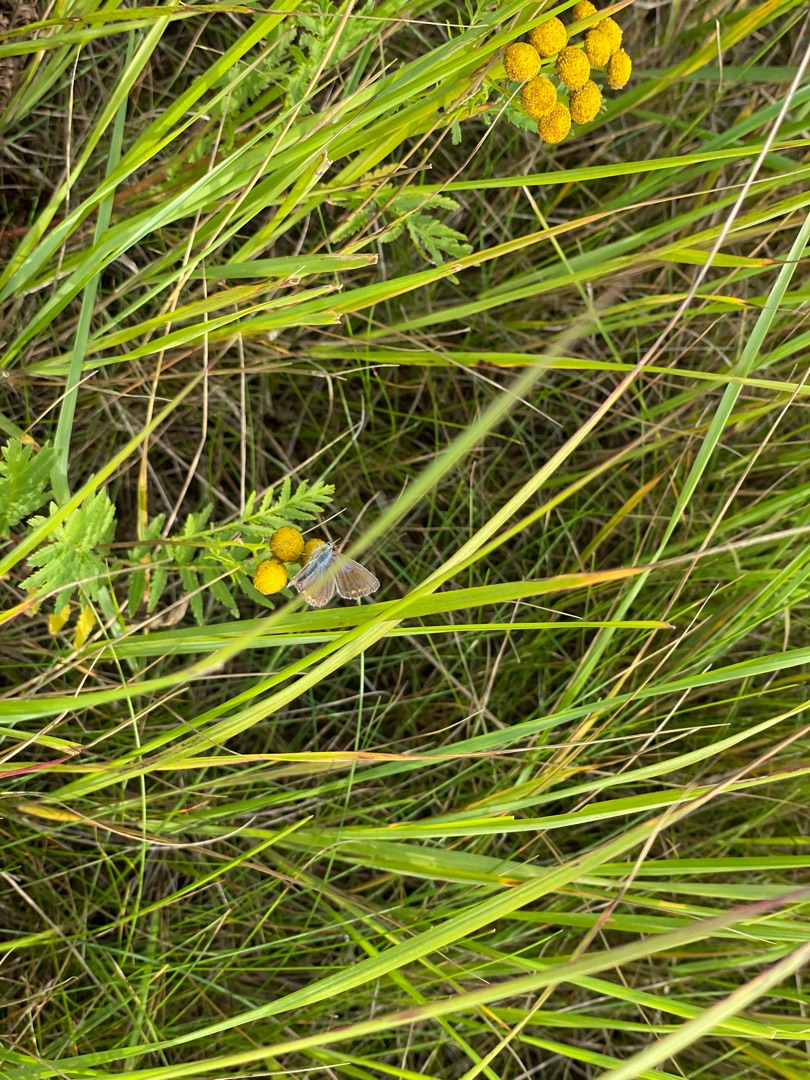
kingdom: Animalia
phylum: Arthropoda
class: Insecta
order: Lepidoptera
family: Lycaenidae
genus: Polyommatus
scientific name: Polyommatus icarus
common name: Almindelig blåfugl
